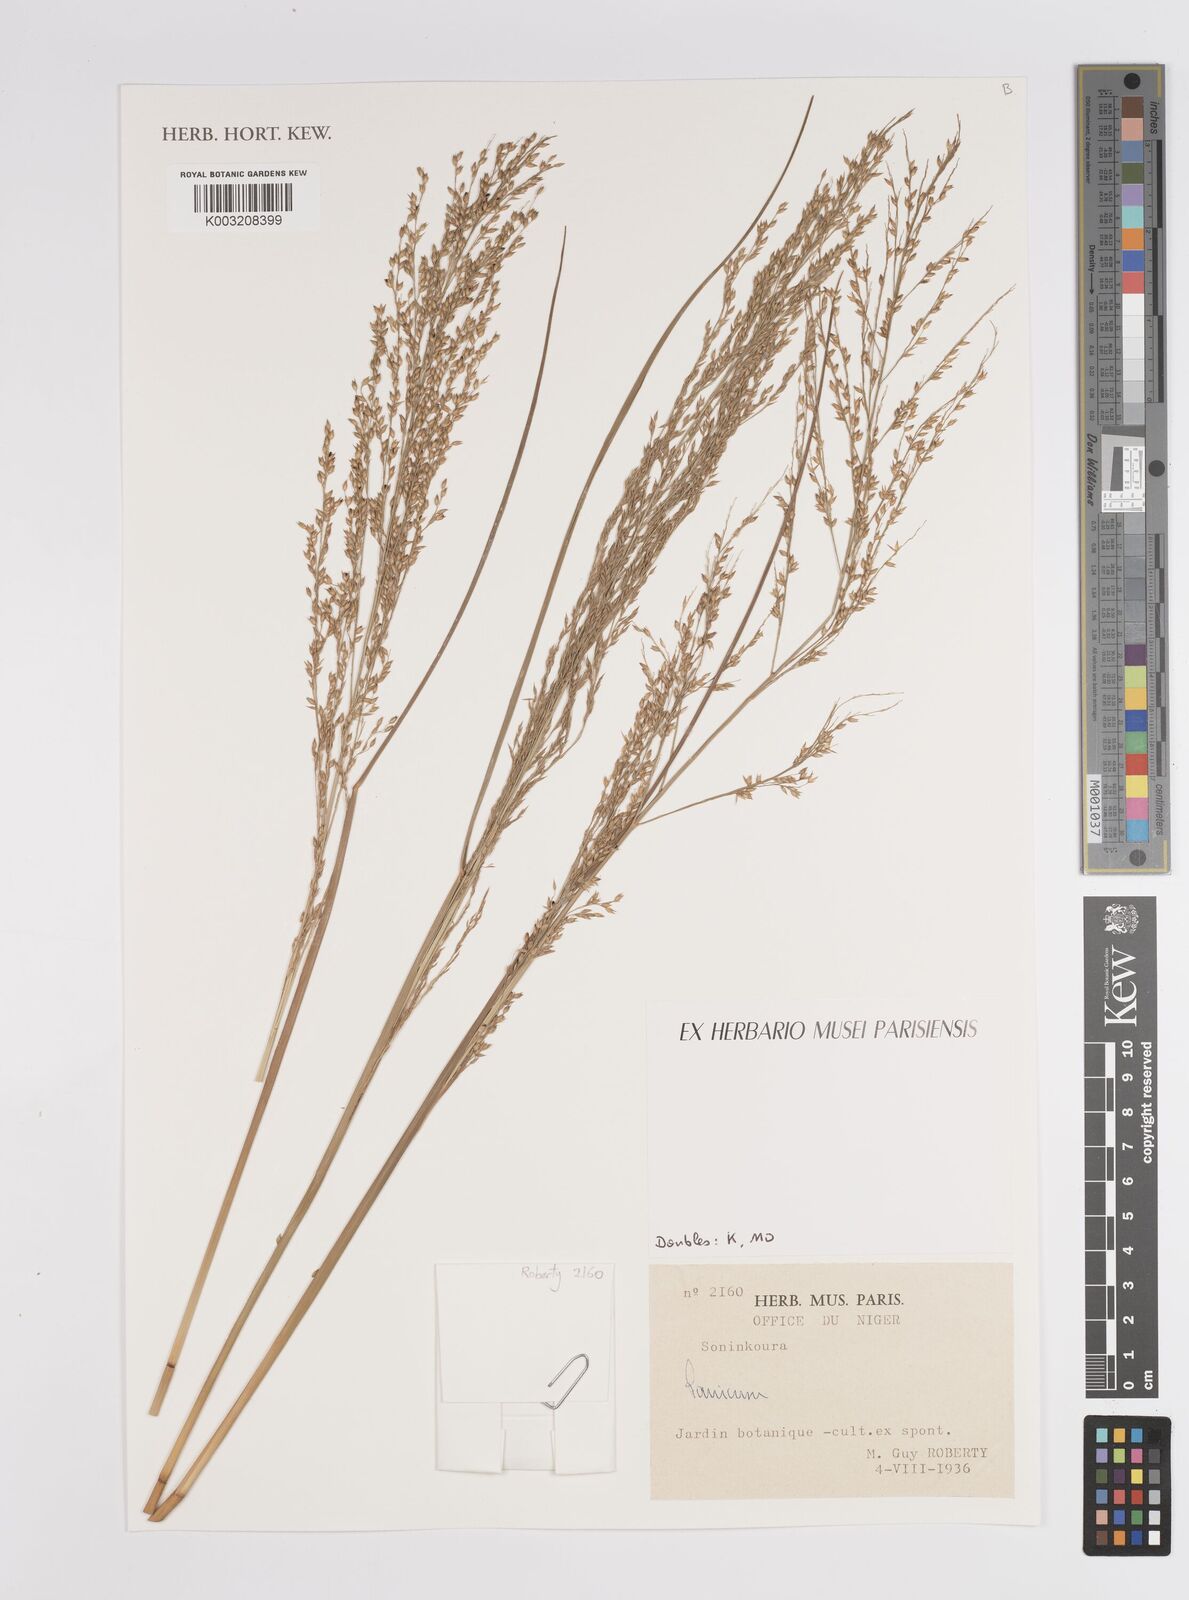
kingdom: Plantae
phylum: Tracheophyta
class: Liliopsida
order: Poales
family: Poaceae
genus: Panicum
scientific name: Panicum
